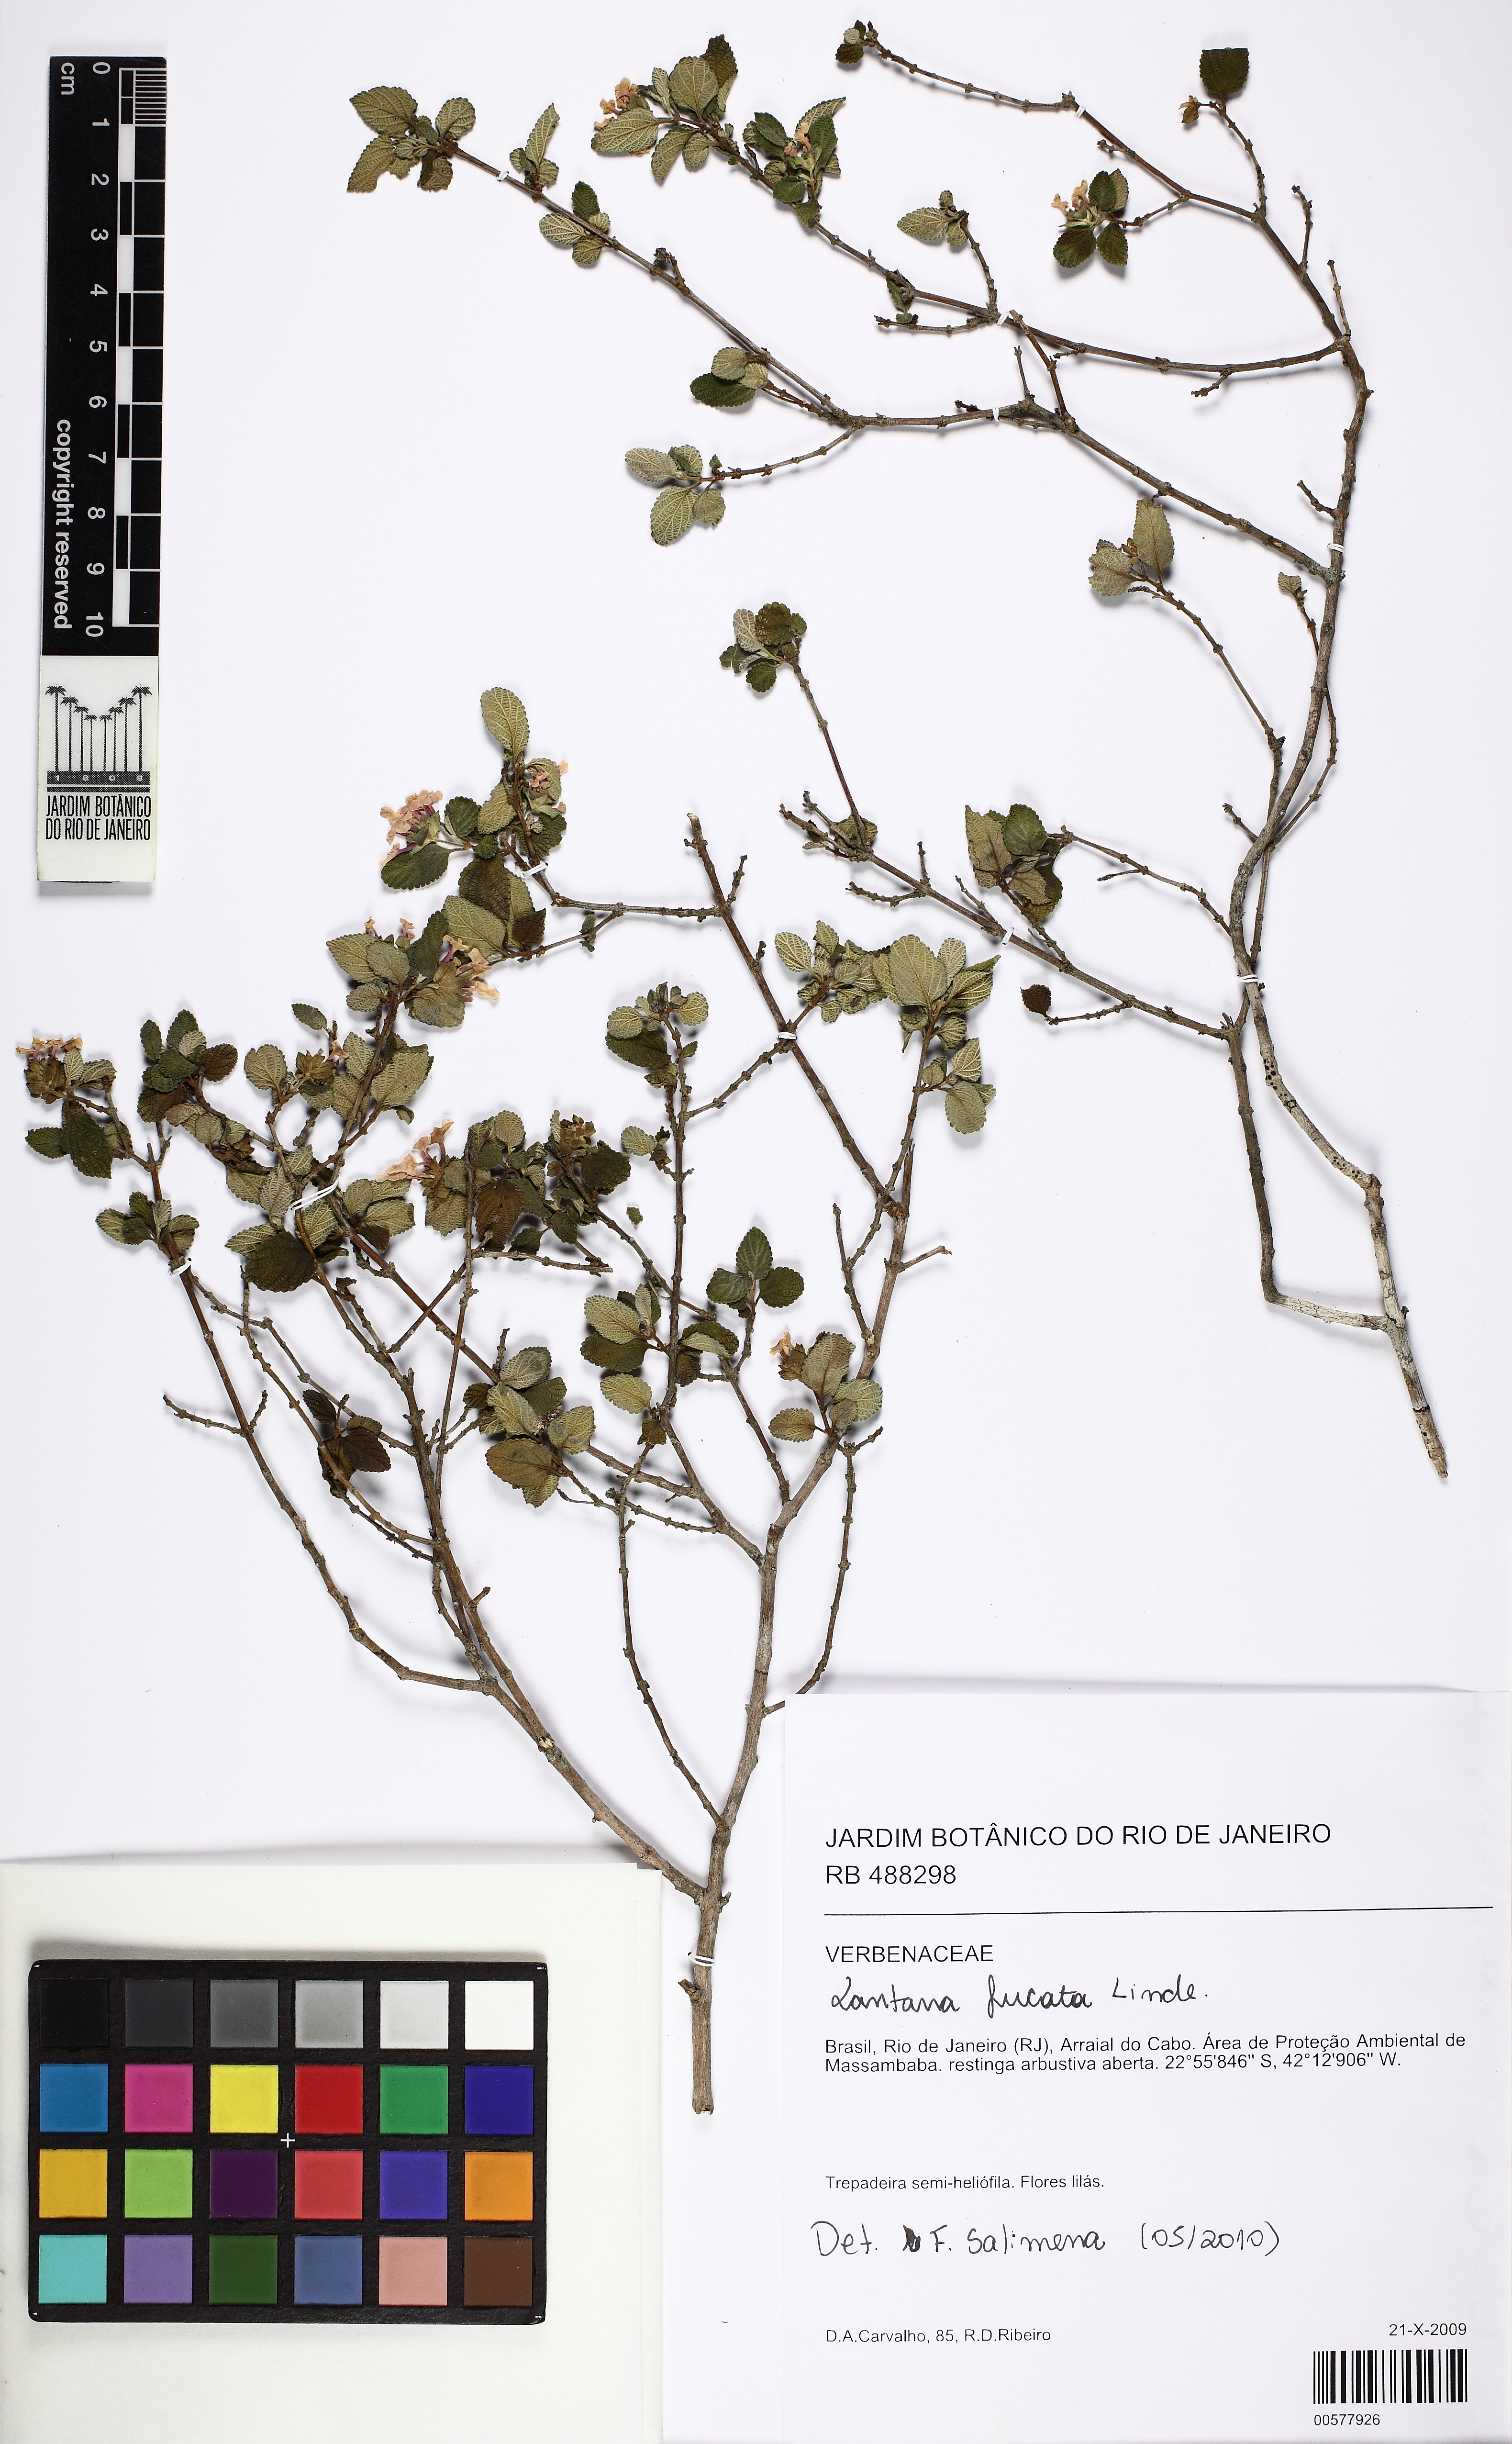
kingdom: Plantae
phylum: Tracheophyta
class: Magnoliopsida
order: Lamiales
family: Verbenaceae
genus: Lantana
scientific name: Lantana fucata
